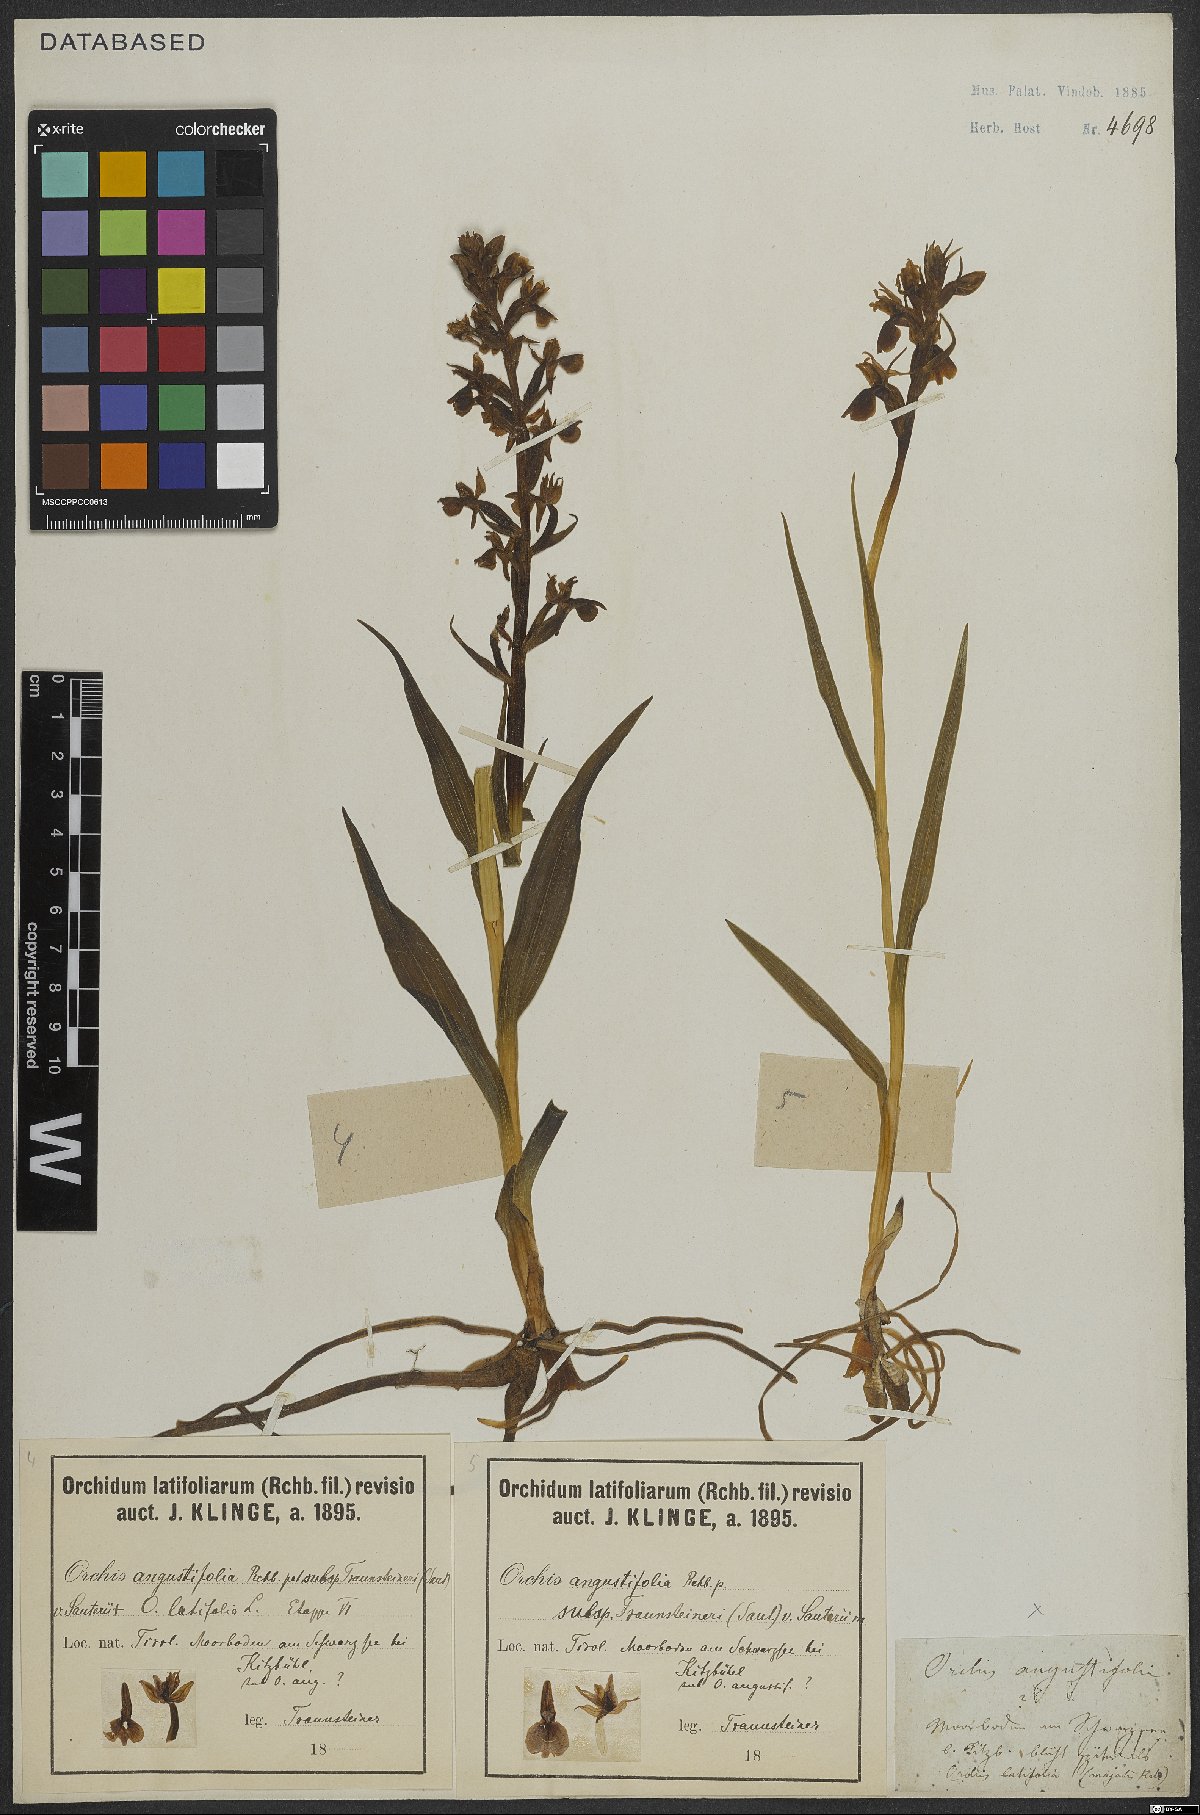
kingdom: Plantae
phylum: Tracheophyta
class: Liliopsida
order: Asparagales
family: Orchidaceae
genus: Dactylorhiza
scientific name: Dactylorhiza incarnata
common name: Early marsh-orchid
